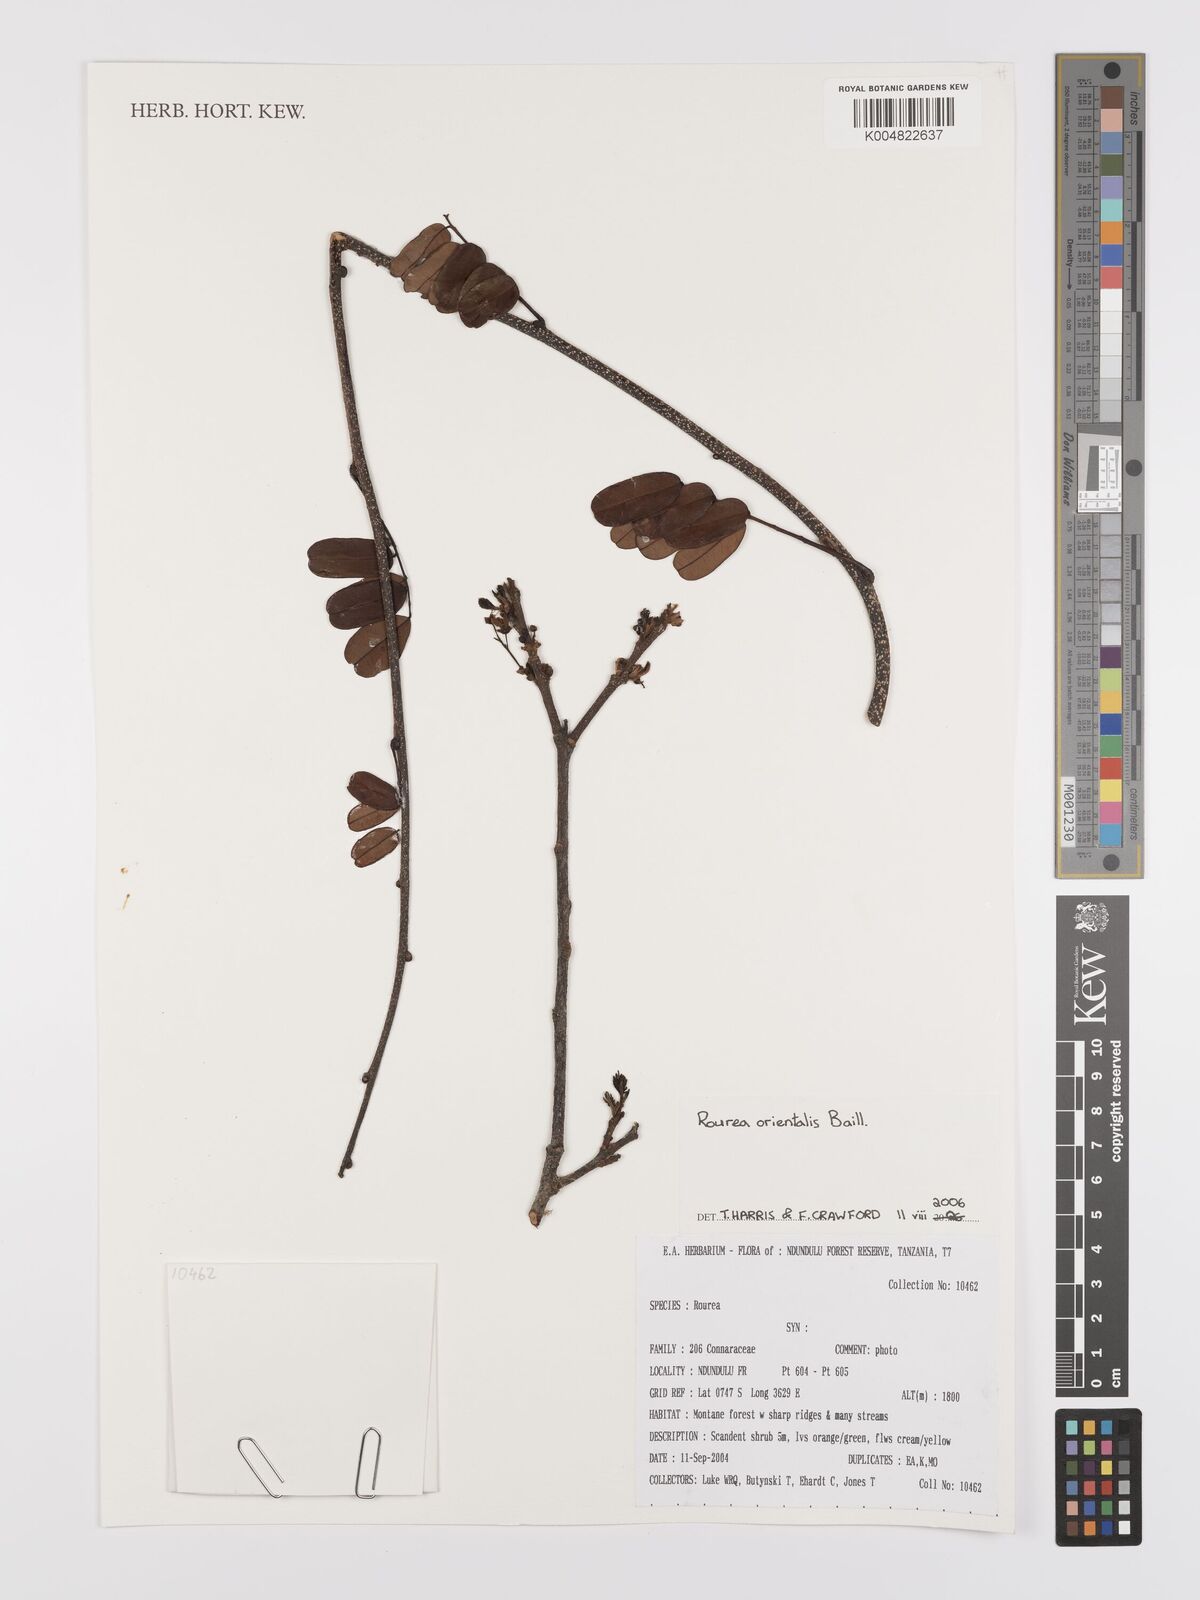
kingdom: Plantae
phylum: Tracheophyta
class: Magnoliopsida
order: Oxalidales
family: Connaraceae
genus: Rourea
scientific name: Rourea orientalis
